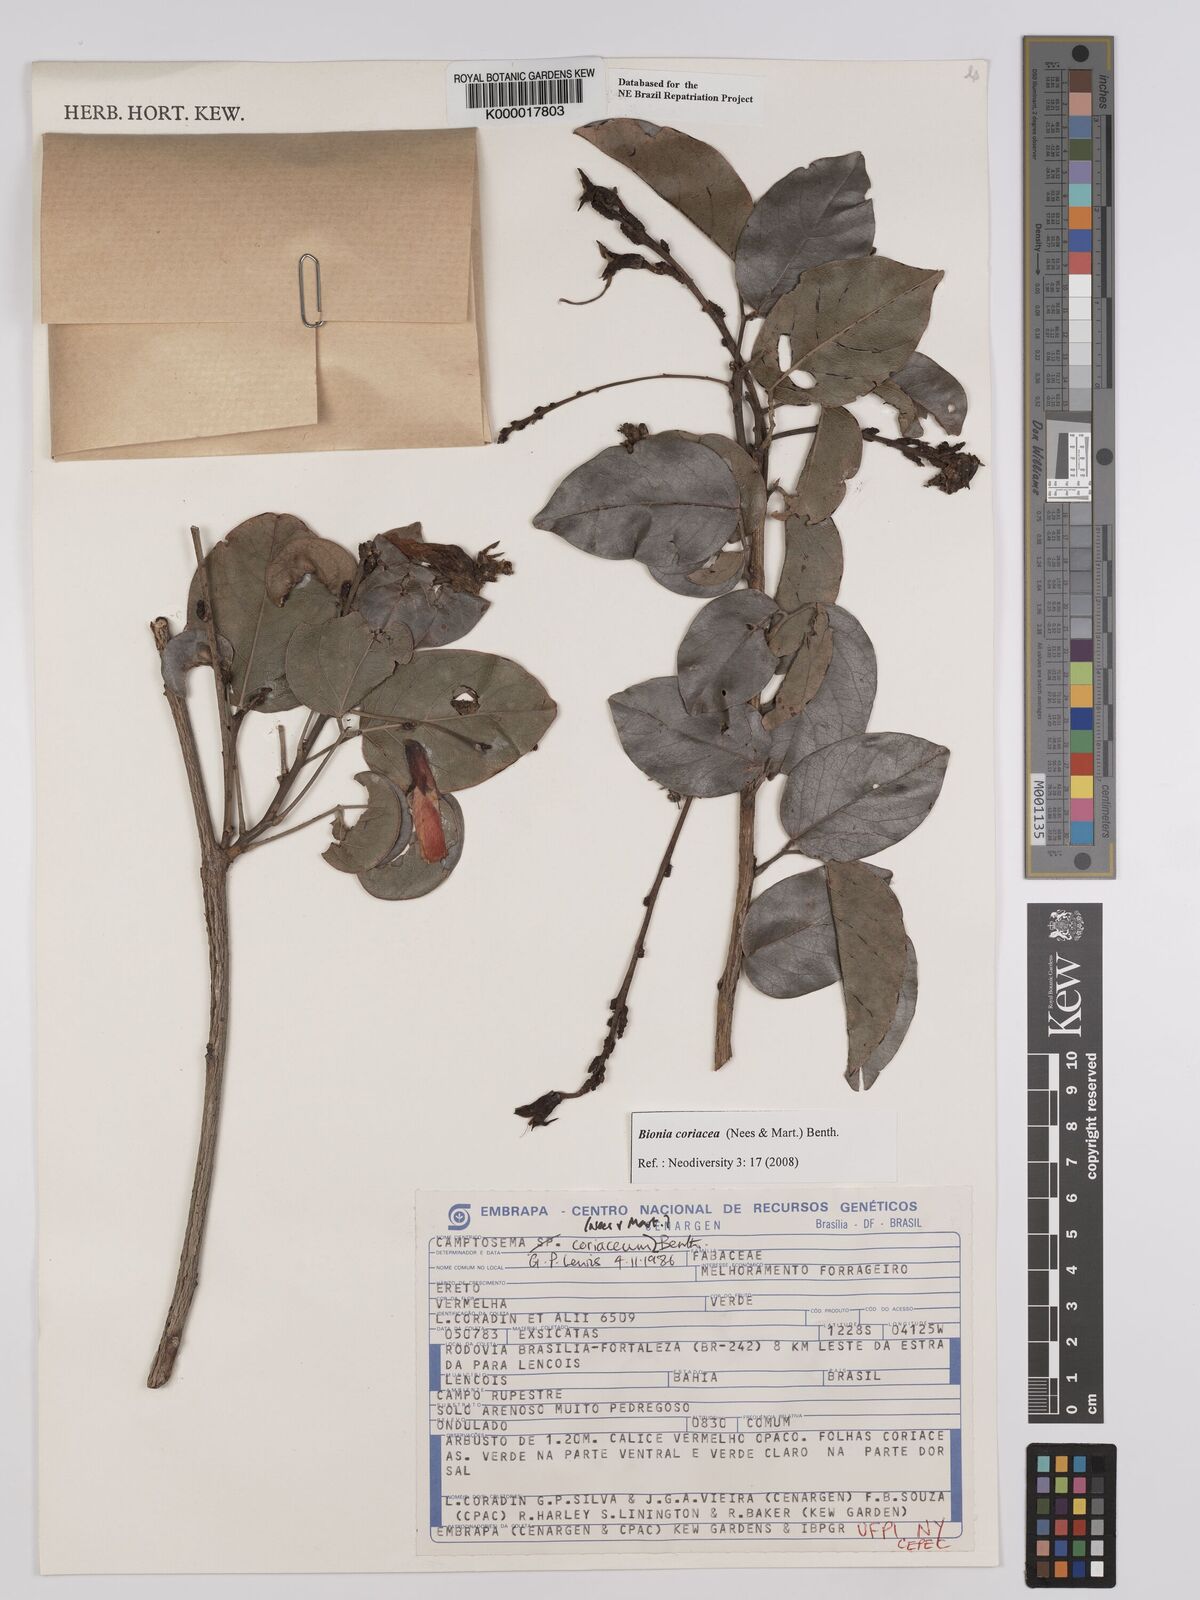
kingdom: Plantae
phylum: Tracheophyta
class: Magnoliopsida
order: Fabales
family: Fabaceae
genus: Camptosema
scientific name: Camptosema coriaceum
